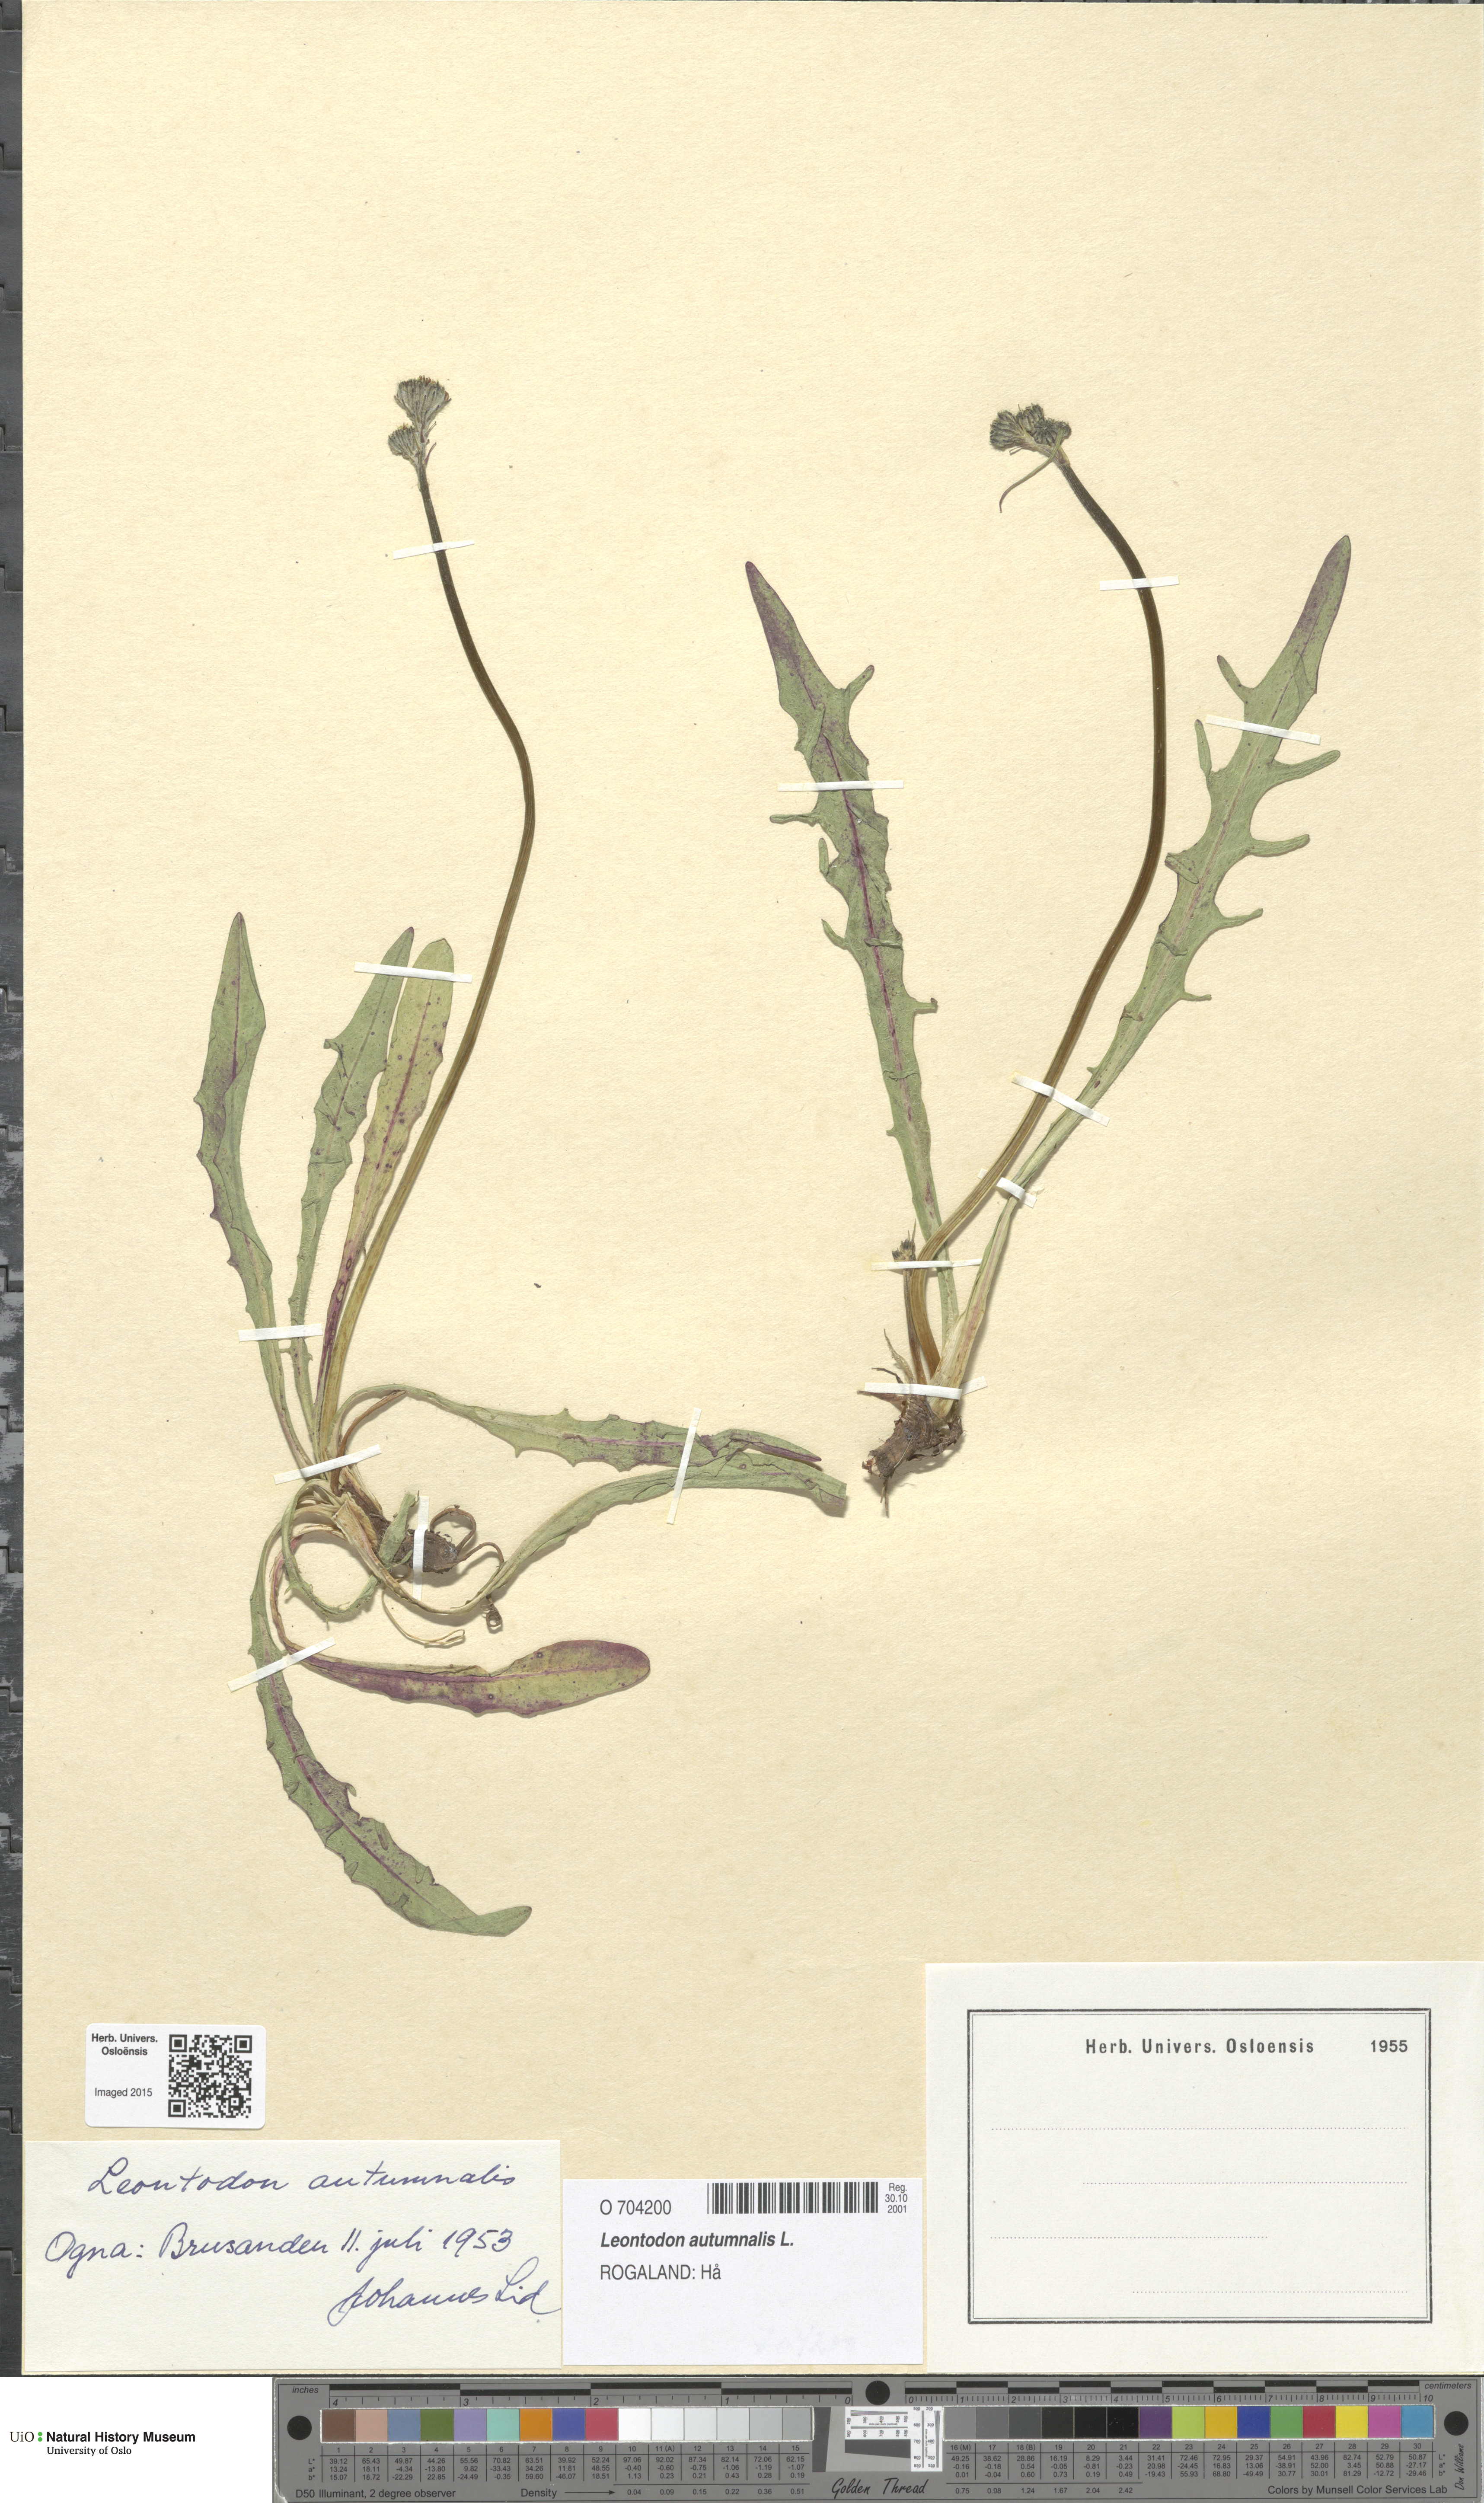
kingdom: Plantae
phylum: Tracheophyta
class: Magnoliopsida
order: Asterales
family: Asteraceae
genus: Scorzoneroides
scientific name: Scorzoneroides autumnalis
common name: Autumn hawkbit
